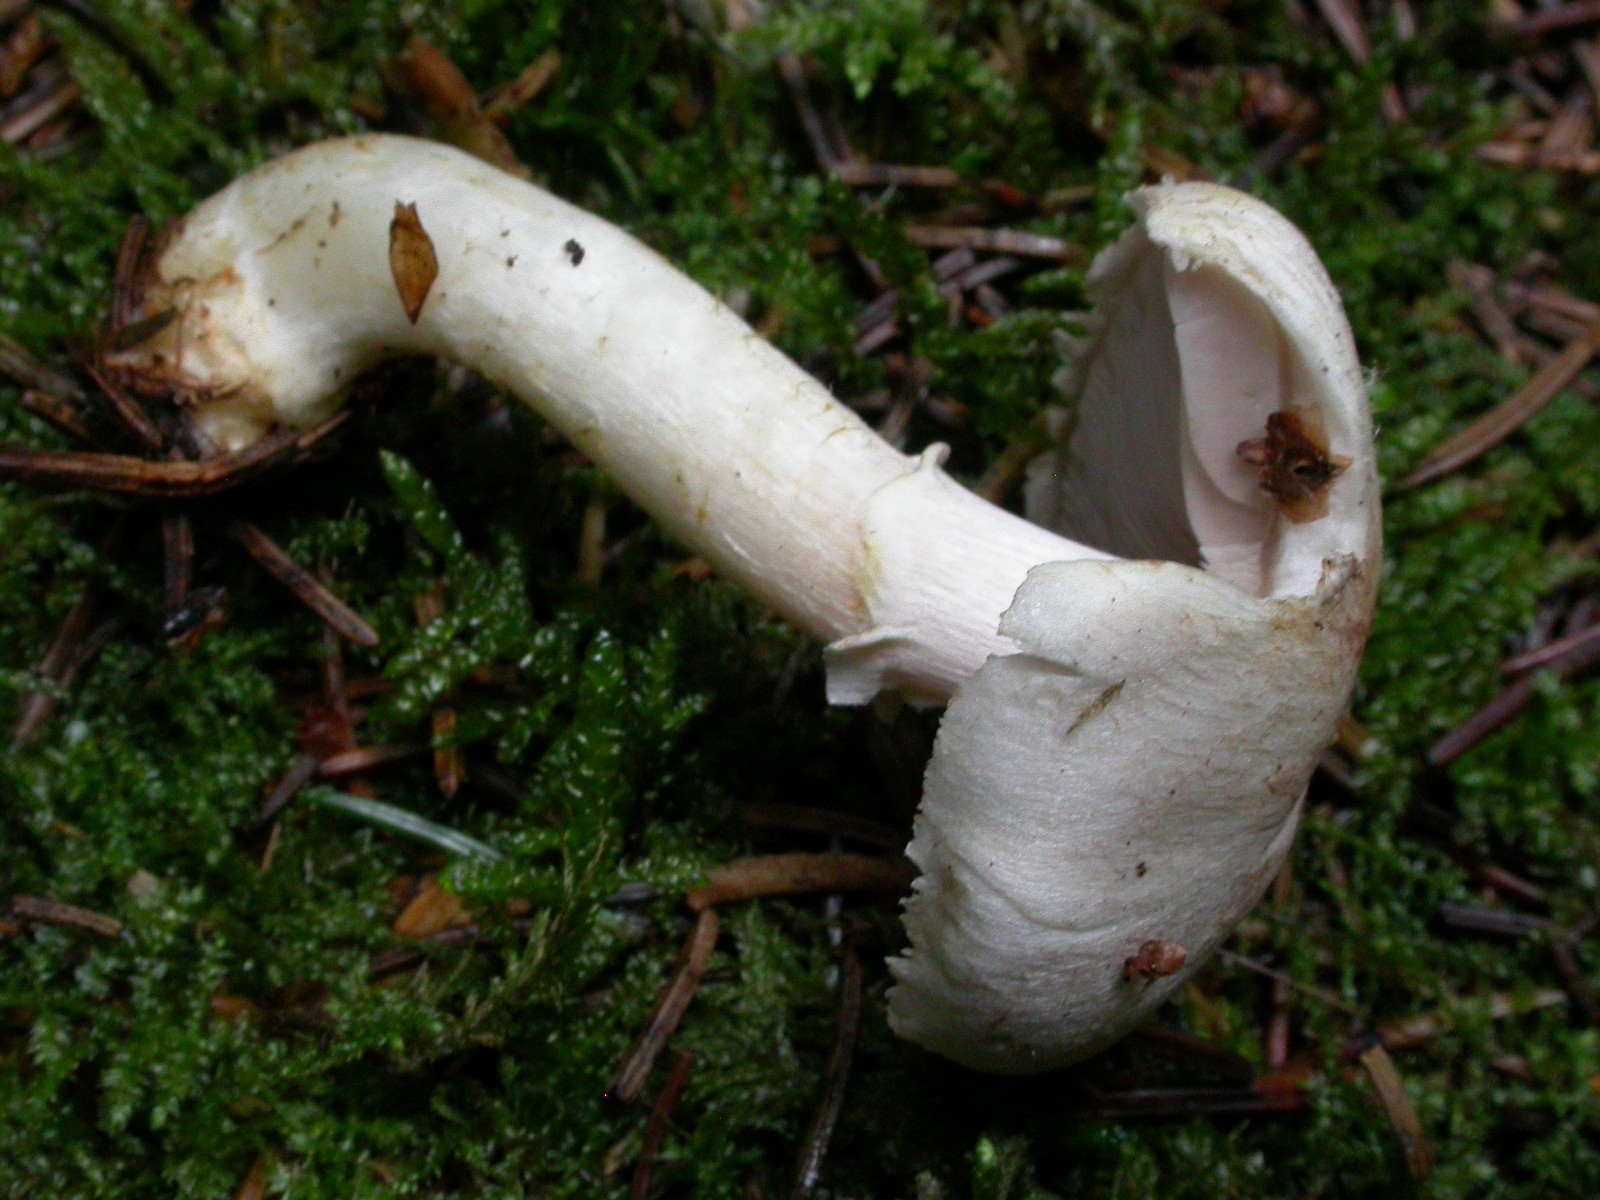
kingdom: Fungi
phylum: Basidiomycota
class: Agaricomycetes
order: Agaricales
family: Agaricaceae
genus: Agaricus
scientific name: Agaricus dulcidulus
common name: blegrød champignon
